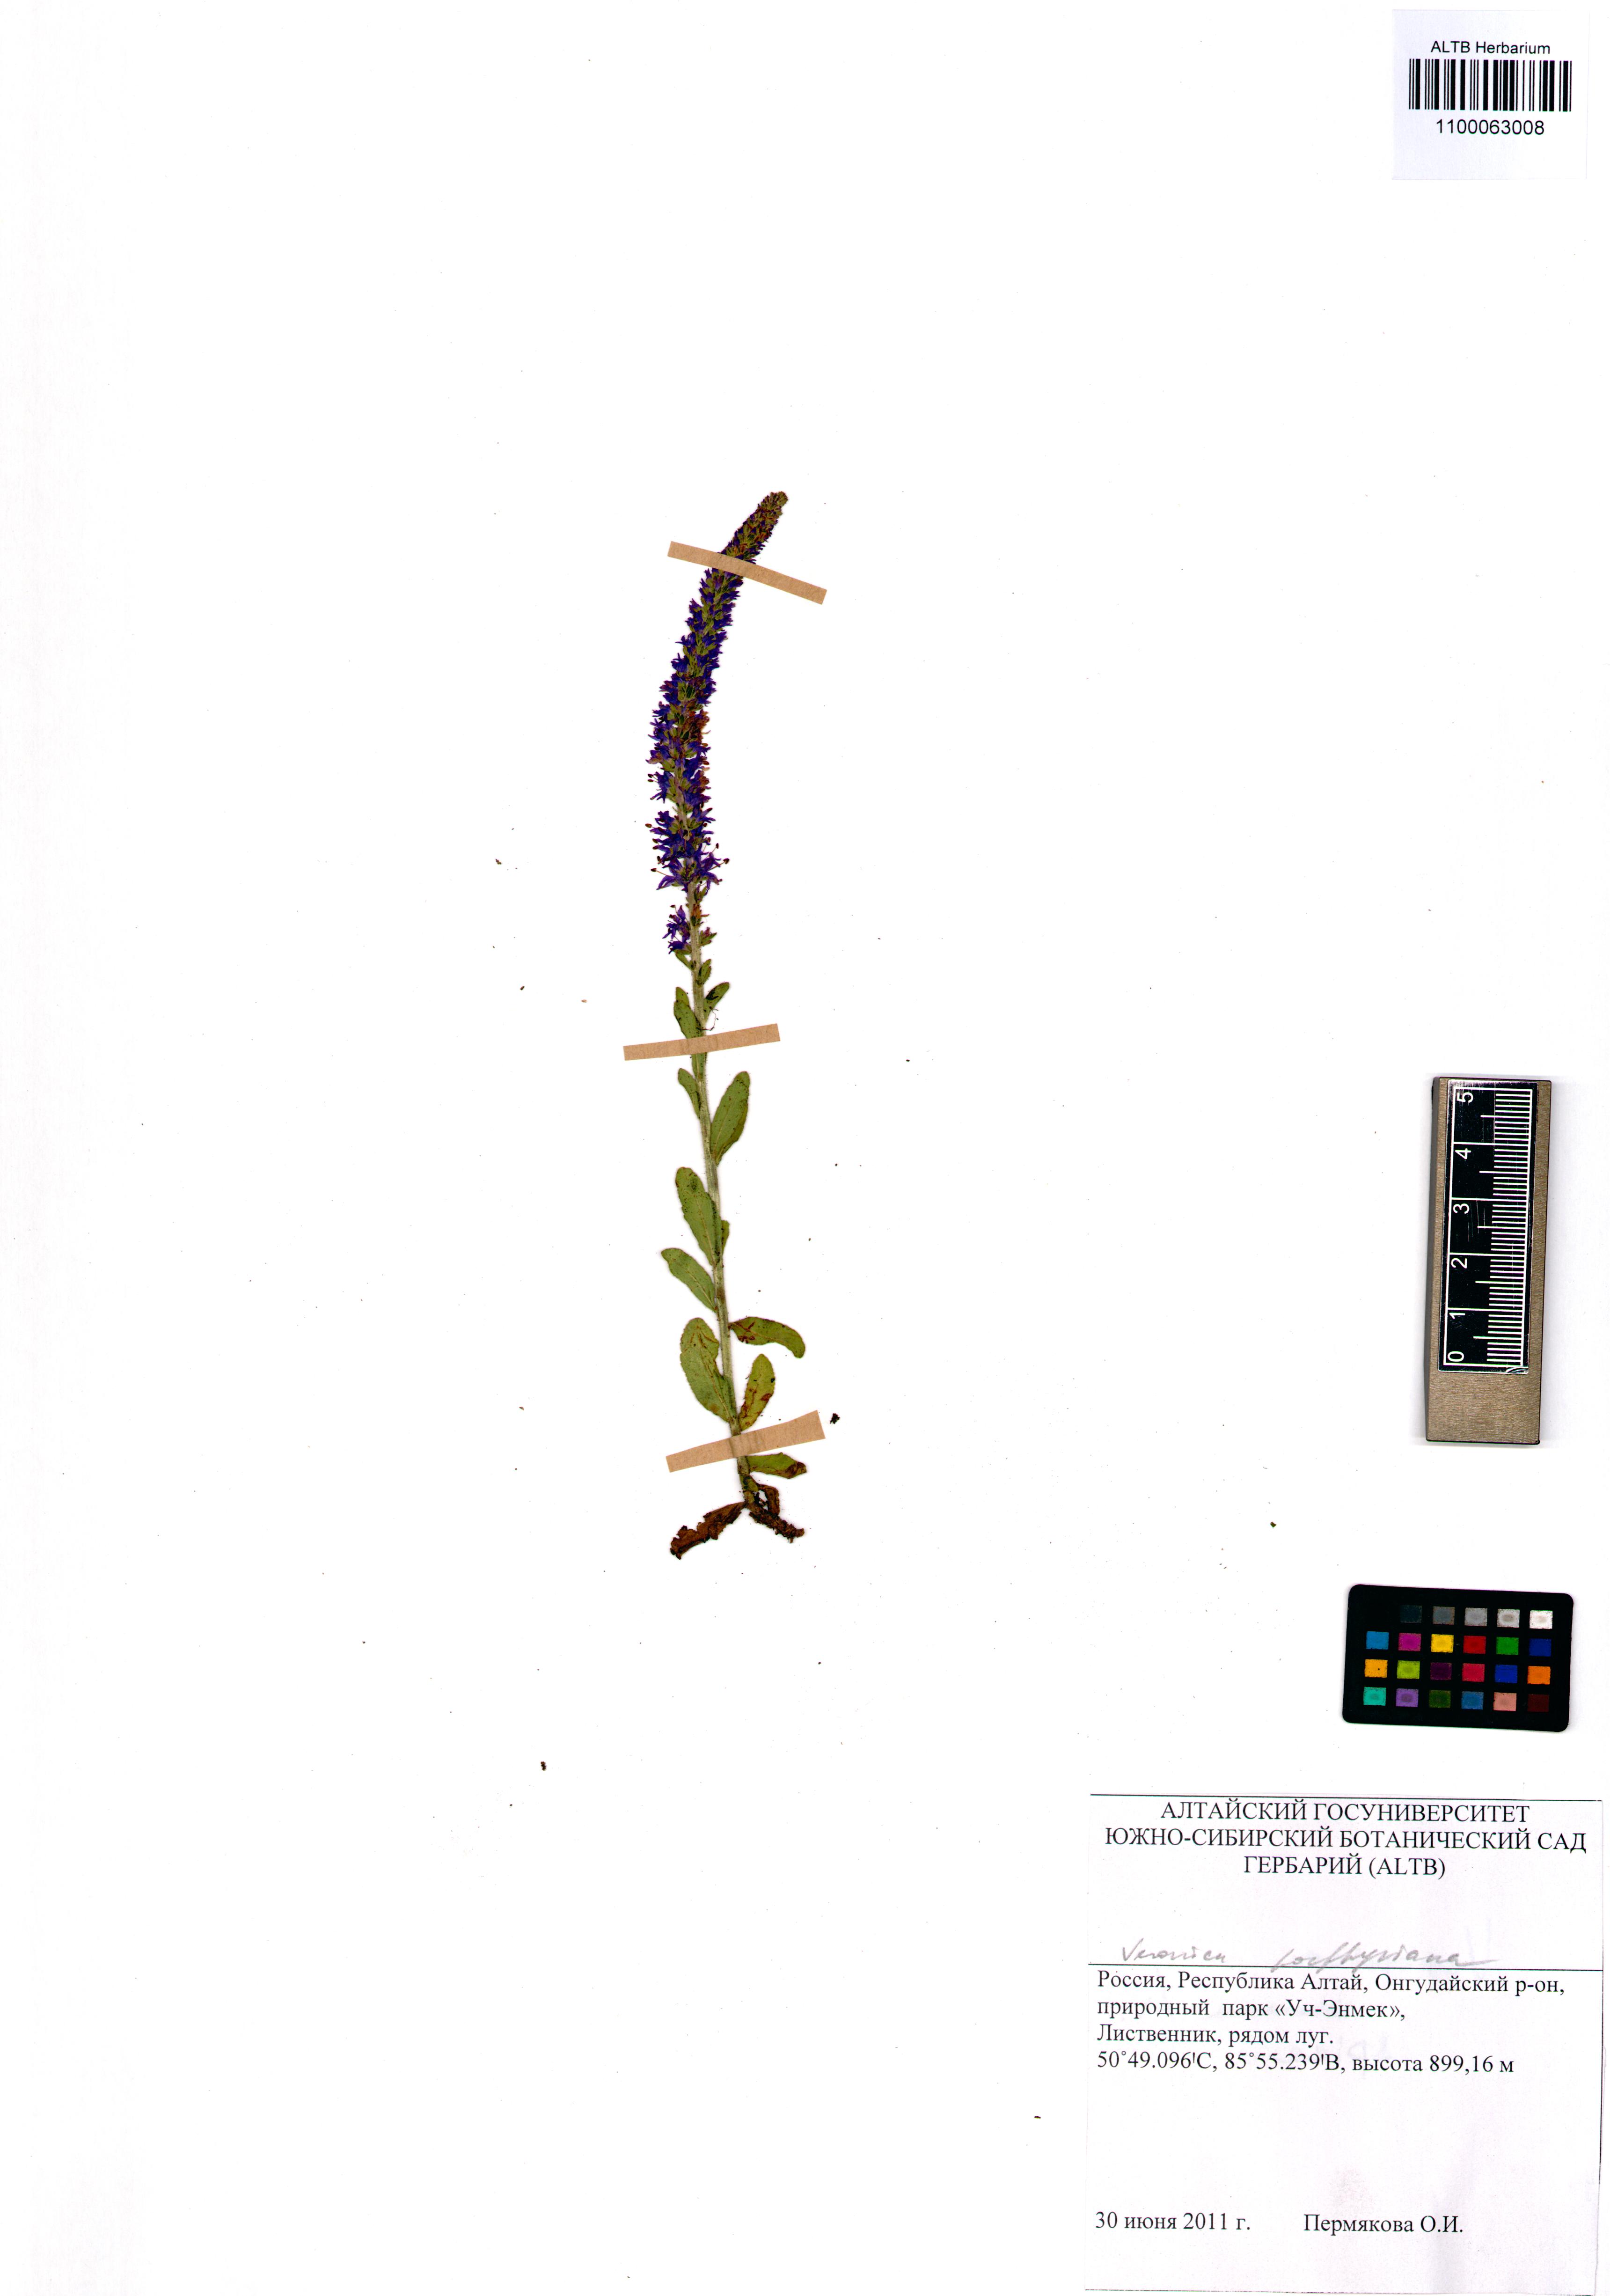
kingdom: Plantae
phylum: Tracheophyta
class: Magnoliopsida
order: Lamiales
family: Plantaginaceae
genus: Veronica
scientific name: Veronica porphyriana
